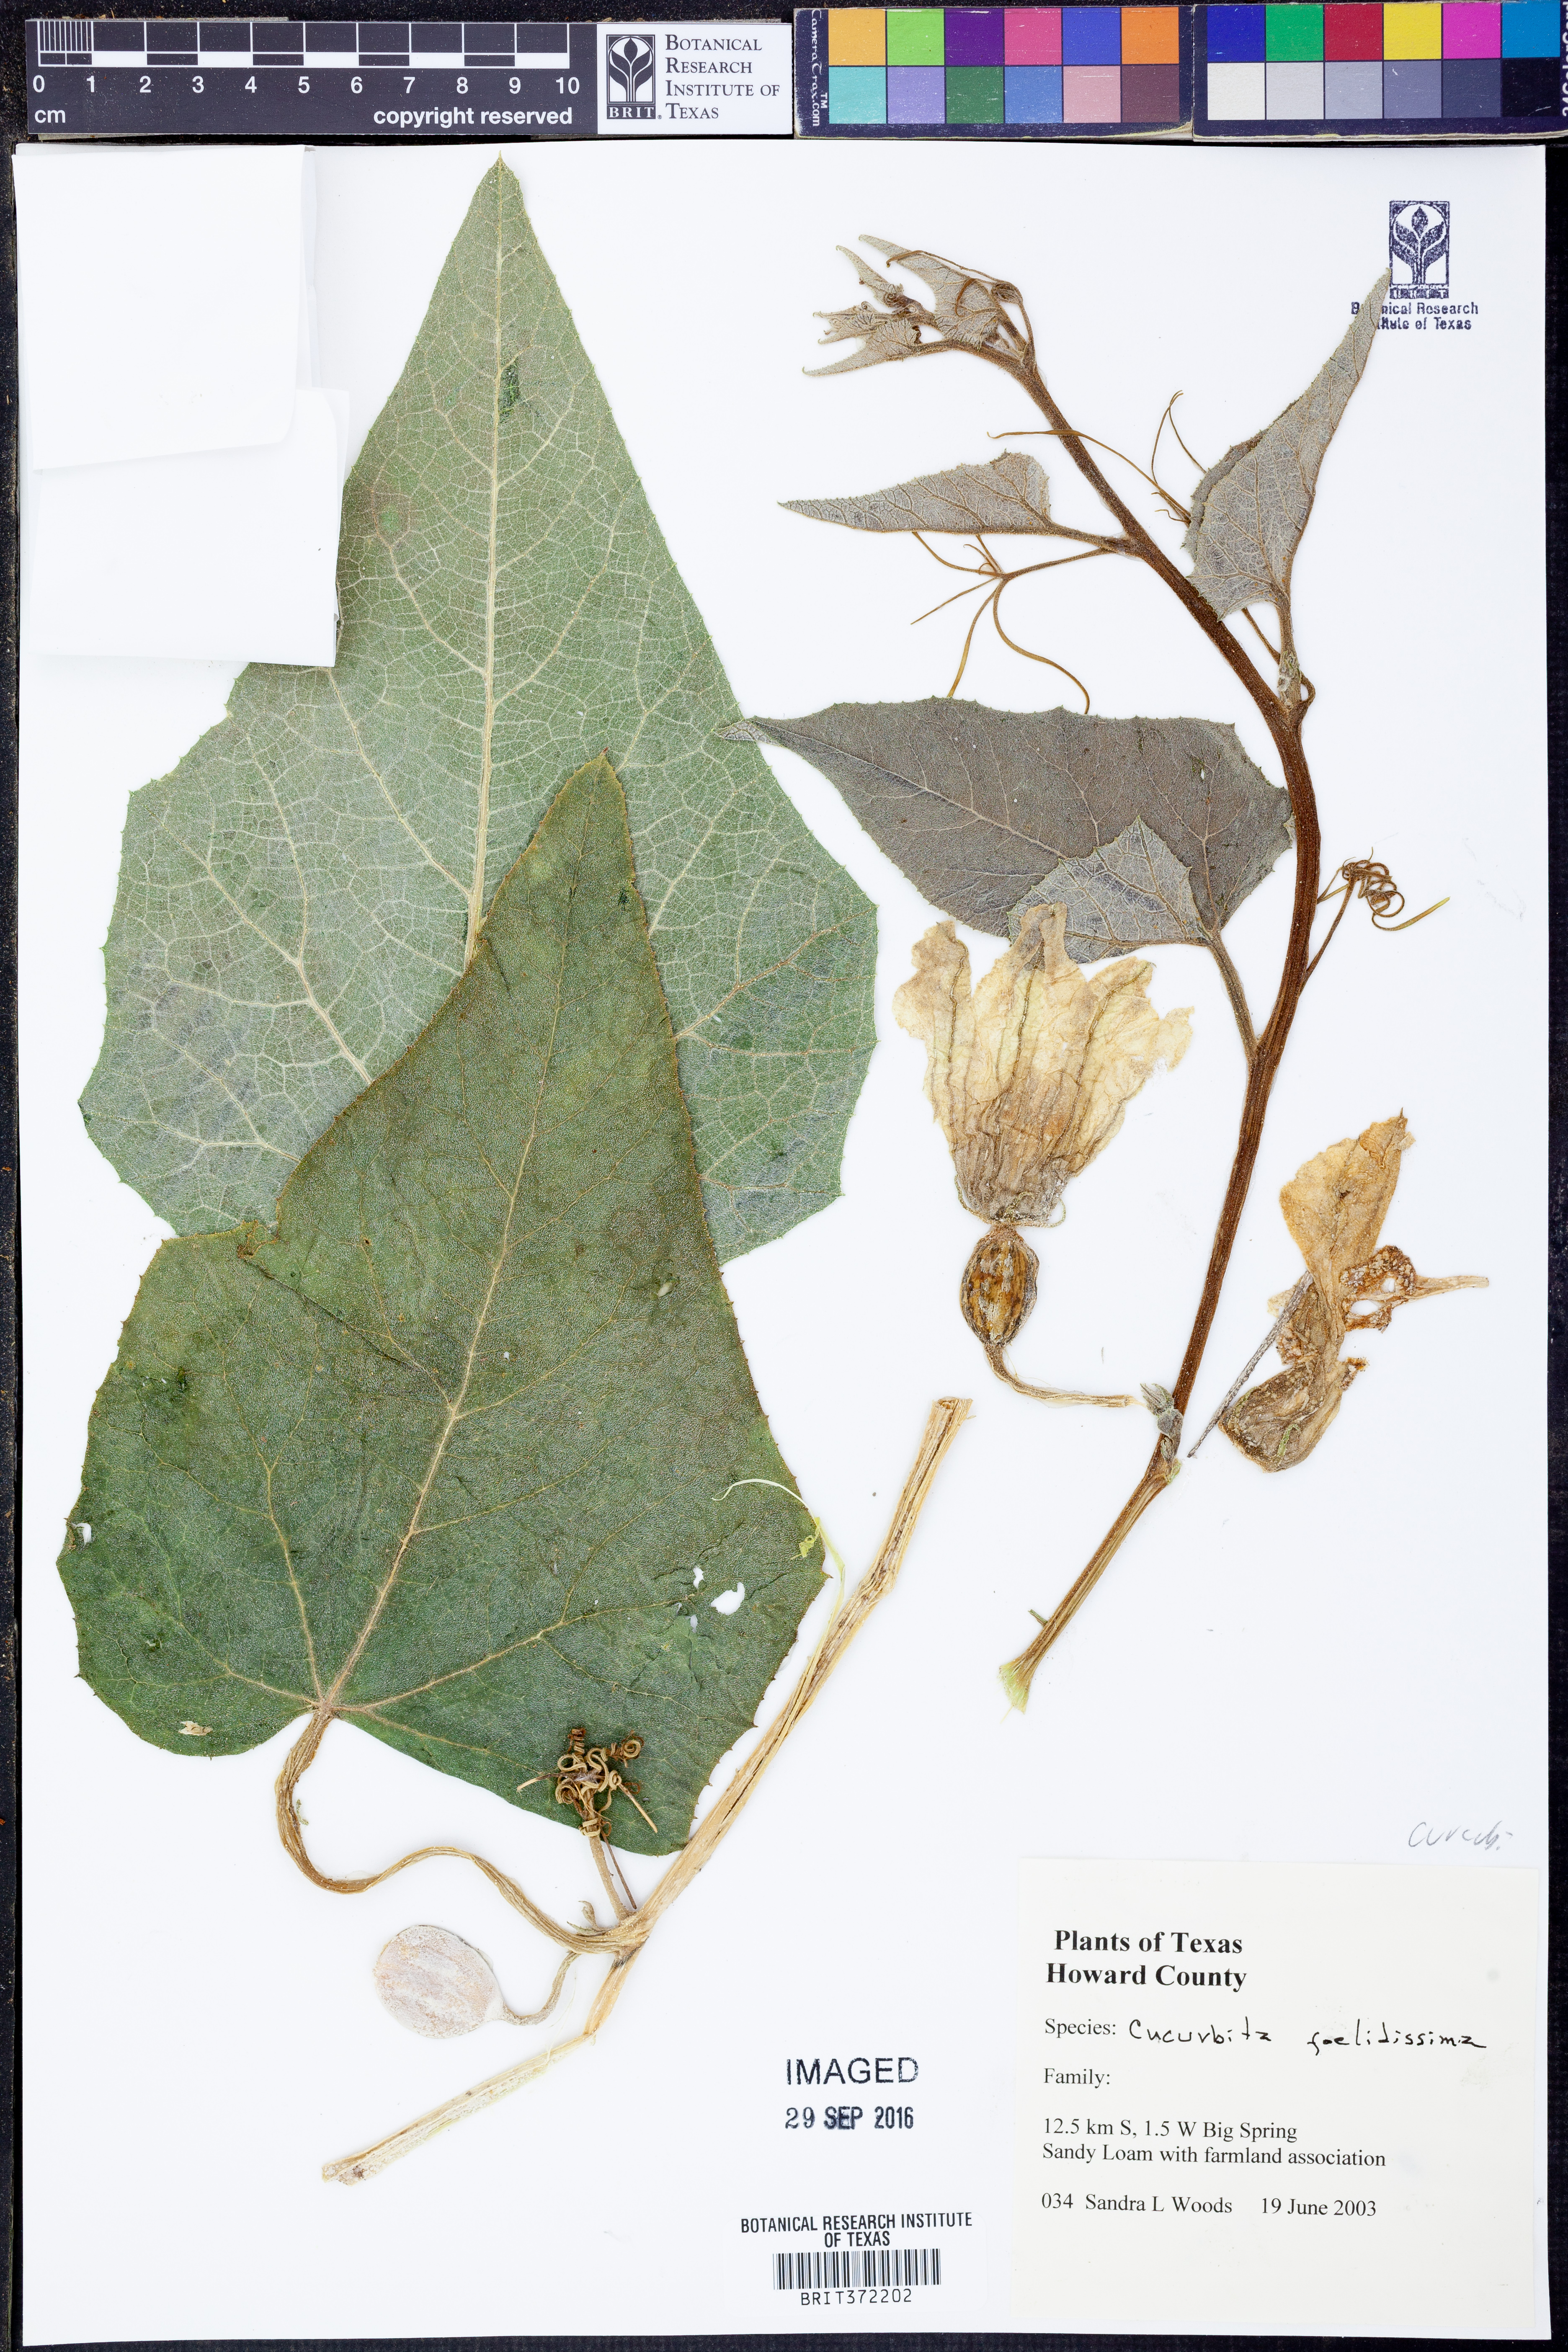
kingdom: Plantae
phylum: Tracheophyta
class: Magnoliopsida
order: Cucurbitales
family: Cucurbitaceae
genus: Cucurbita
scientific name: Cucurbita foetidissima
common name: Buffalo gourd
